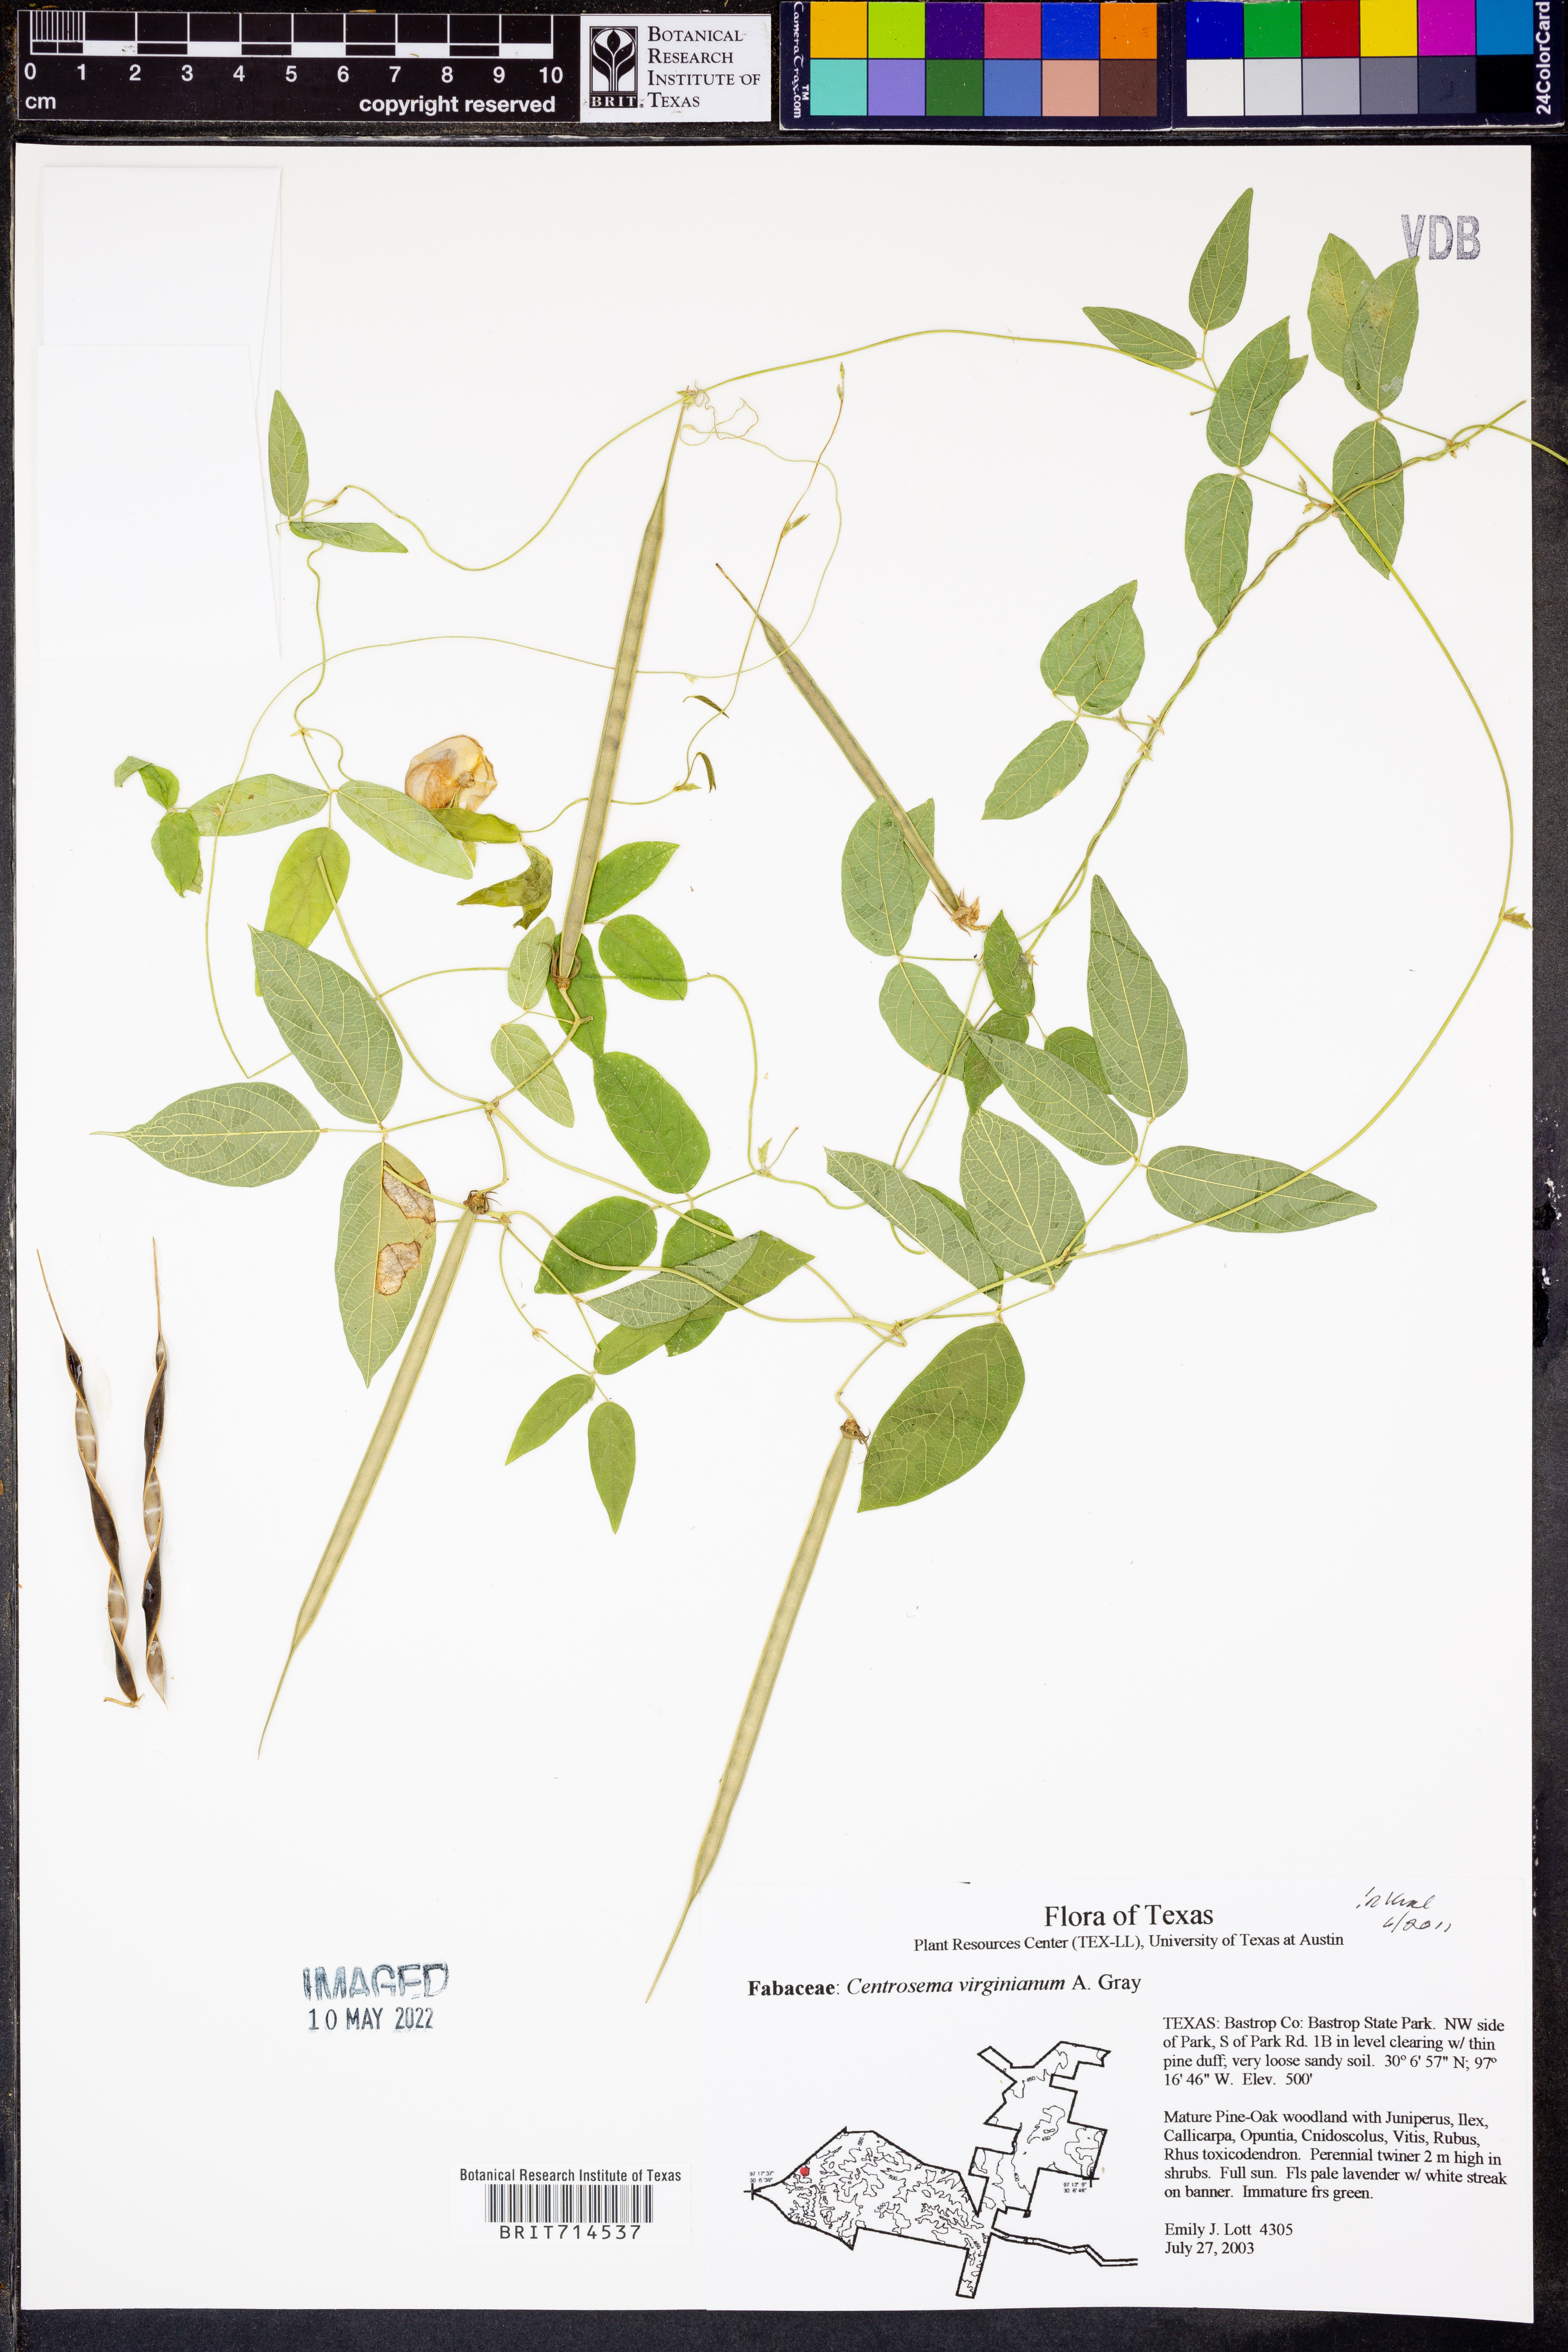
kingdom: Plantae
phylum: Tracheophyta
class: Magnoliopsida
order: Fabales
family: Fabaceae
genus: Centrosema
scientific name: Centrosema virginianum
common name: Butterfly-pea
